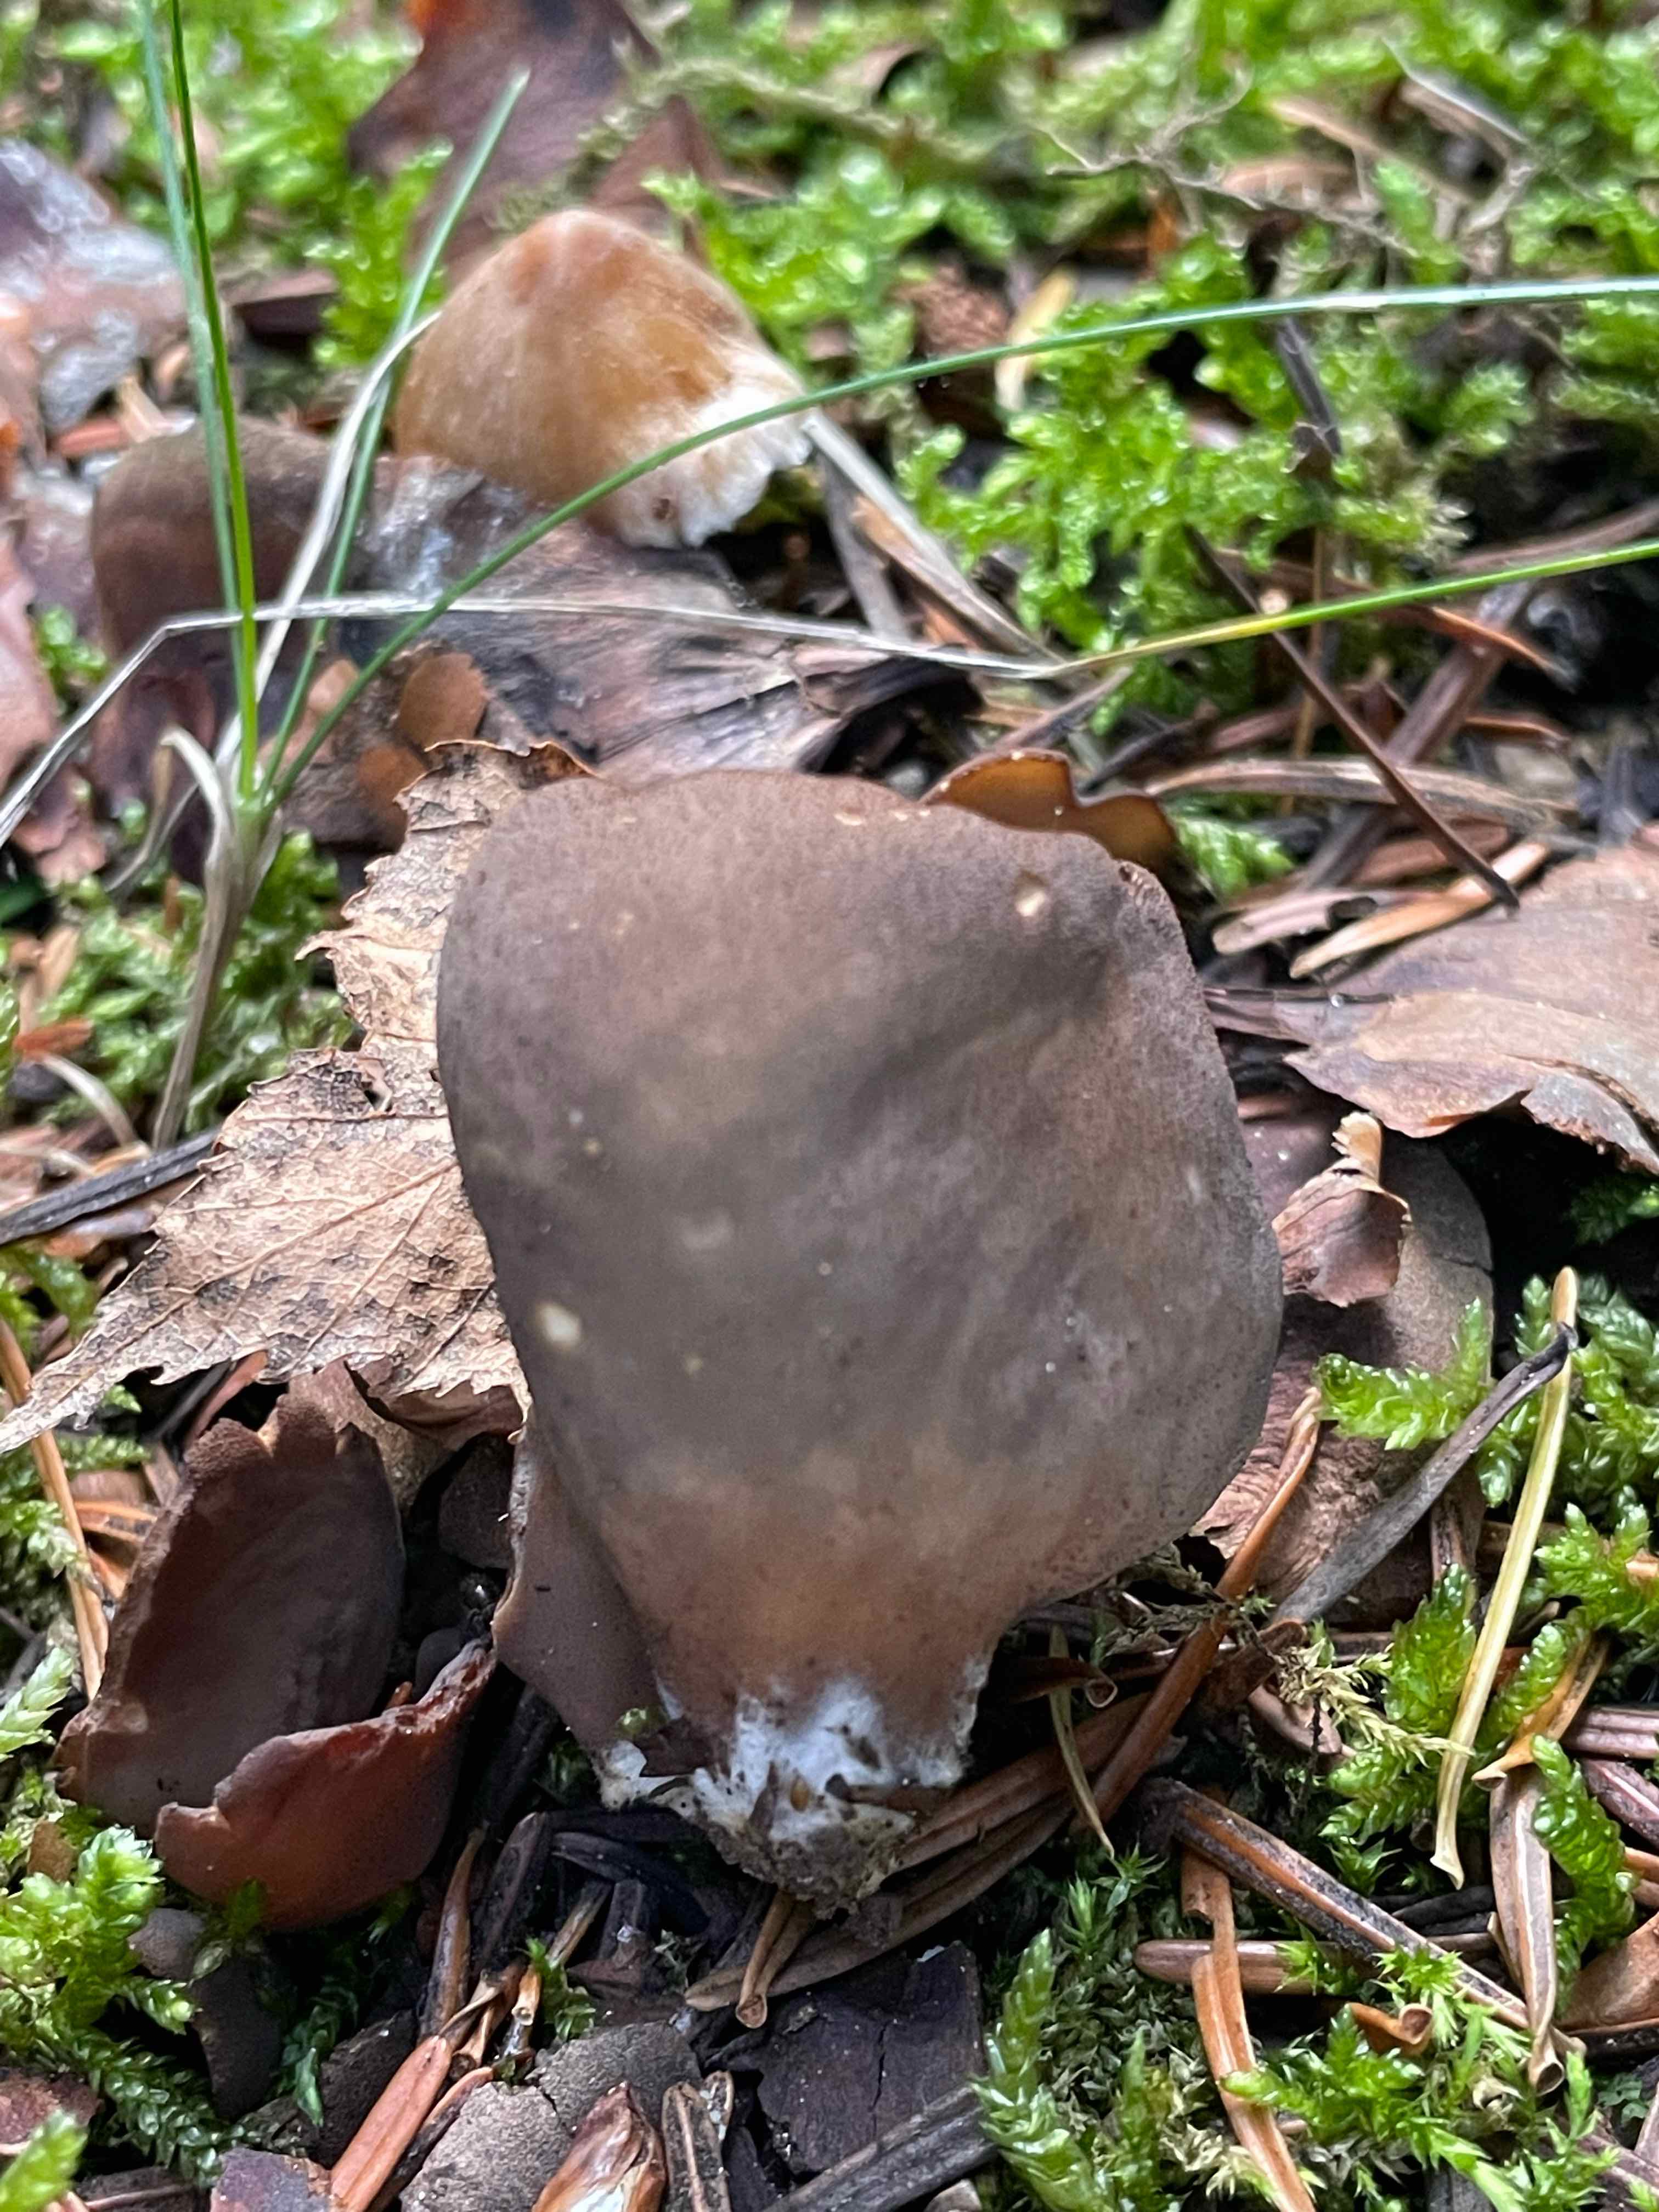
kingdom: Fungi
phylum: Ascomycota
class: Pezizomycetes
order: Pezizales
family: Otideaceae
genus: Otidea
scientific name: Otidea bufonia
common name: brun ørebæger
